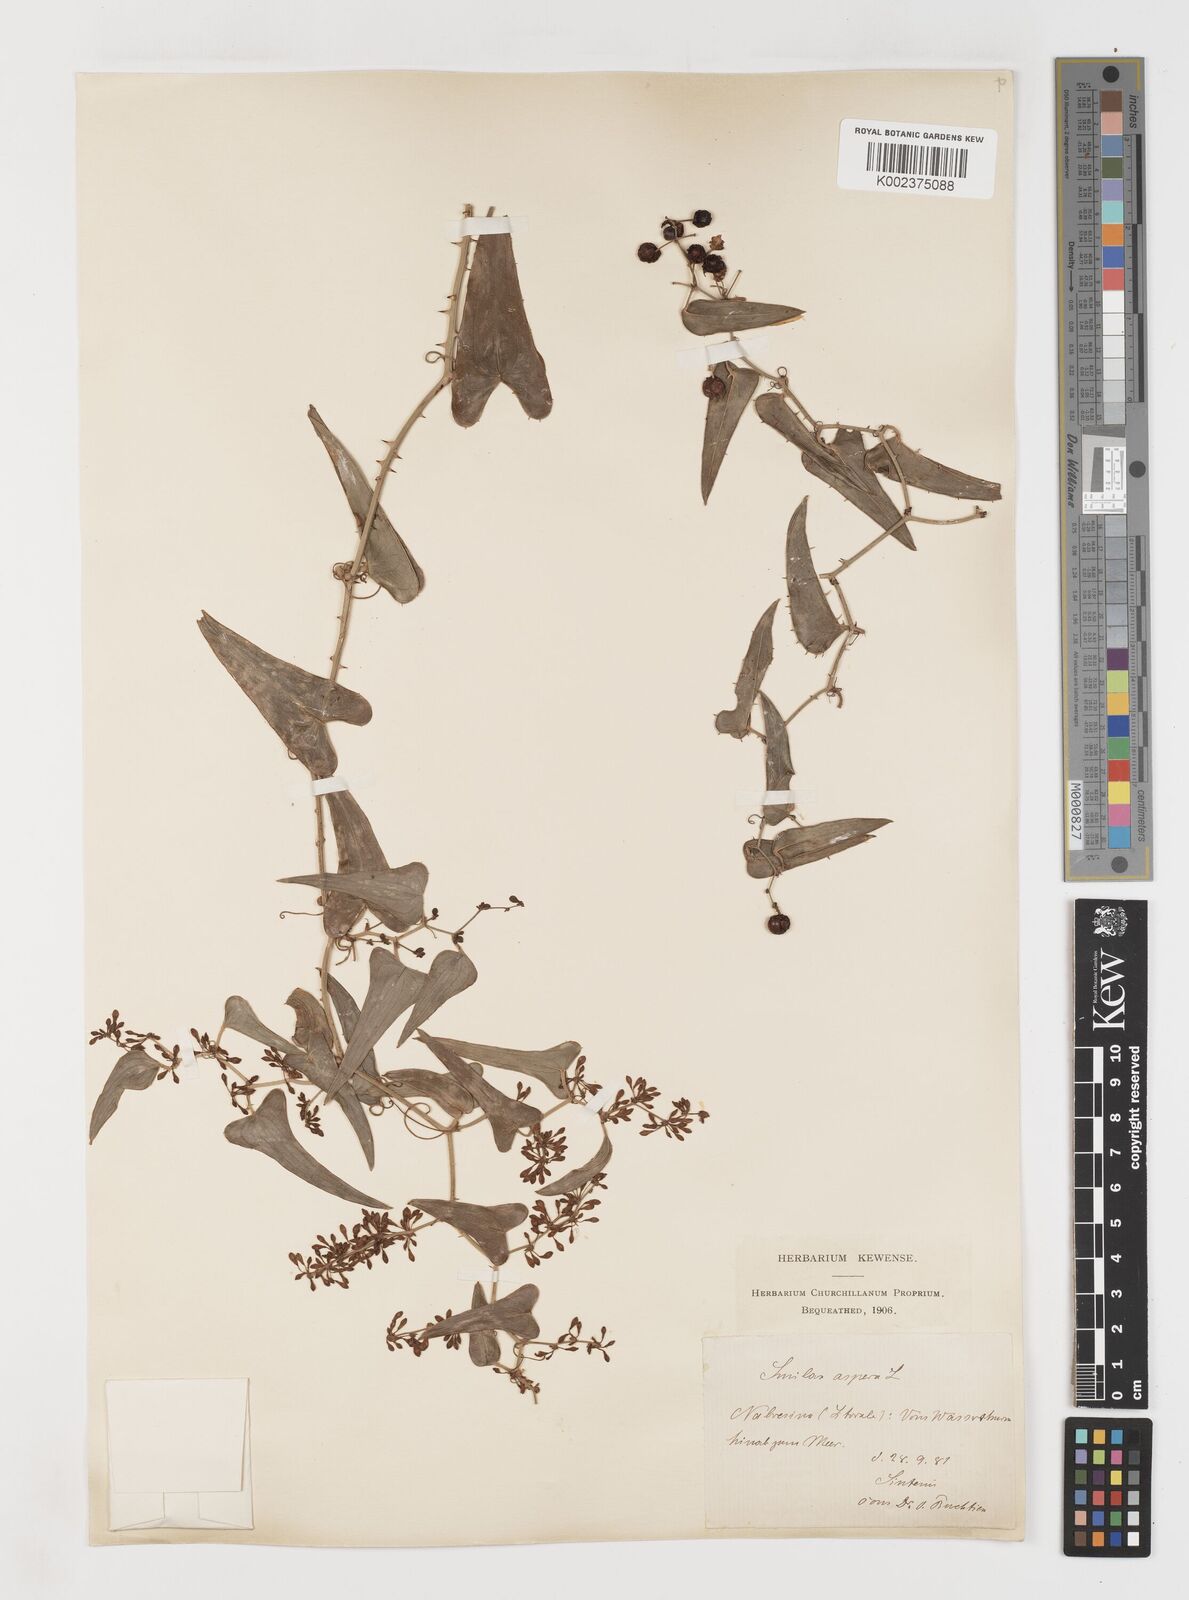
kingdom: Plantae
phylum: Tracheophyta
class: Liliopsida
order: Liliales
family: Smilacaceae
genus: Smilax
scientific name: Smilax aspera
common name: Common smilax
